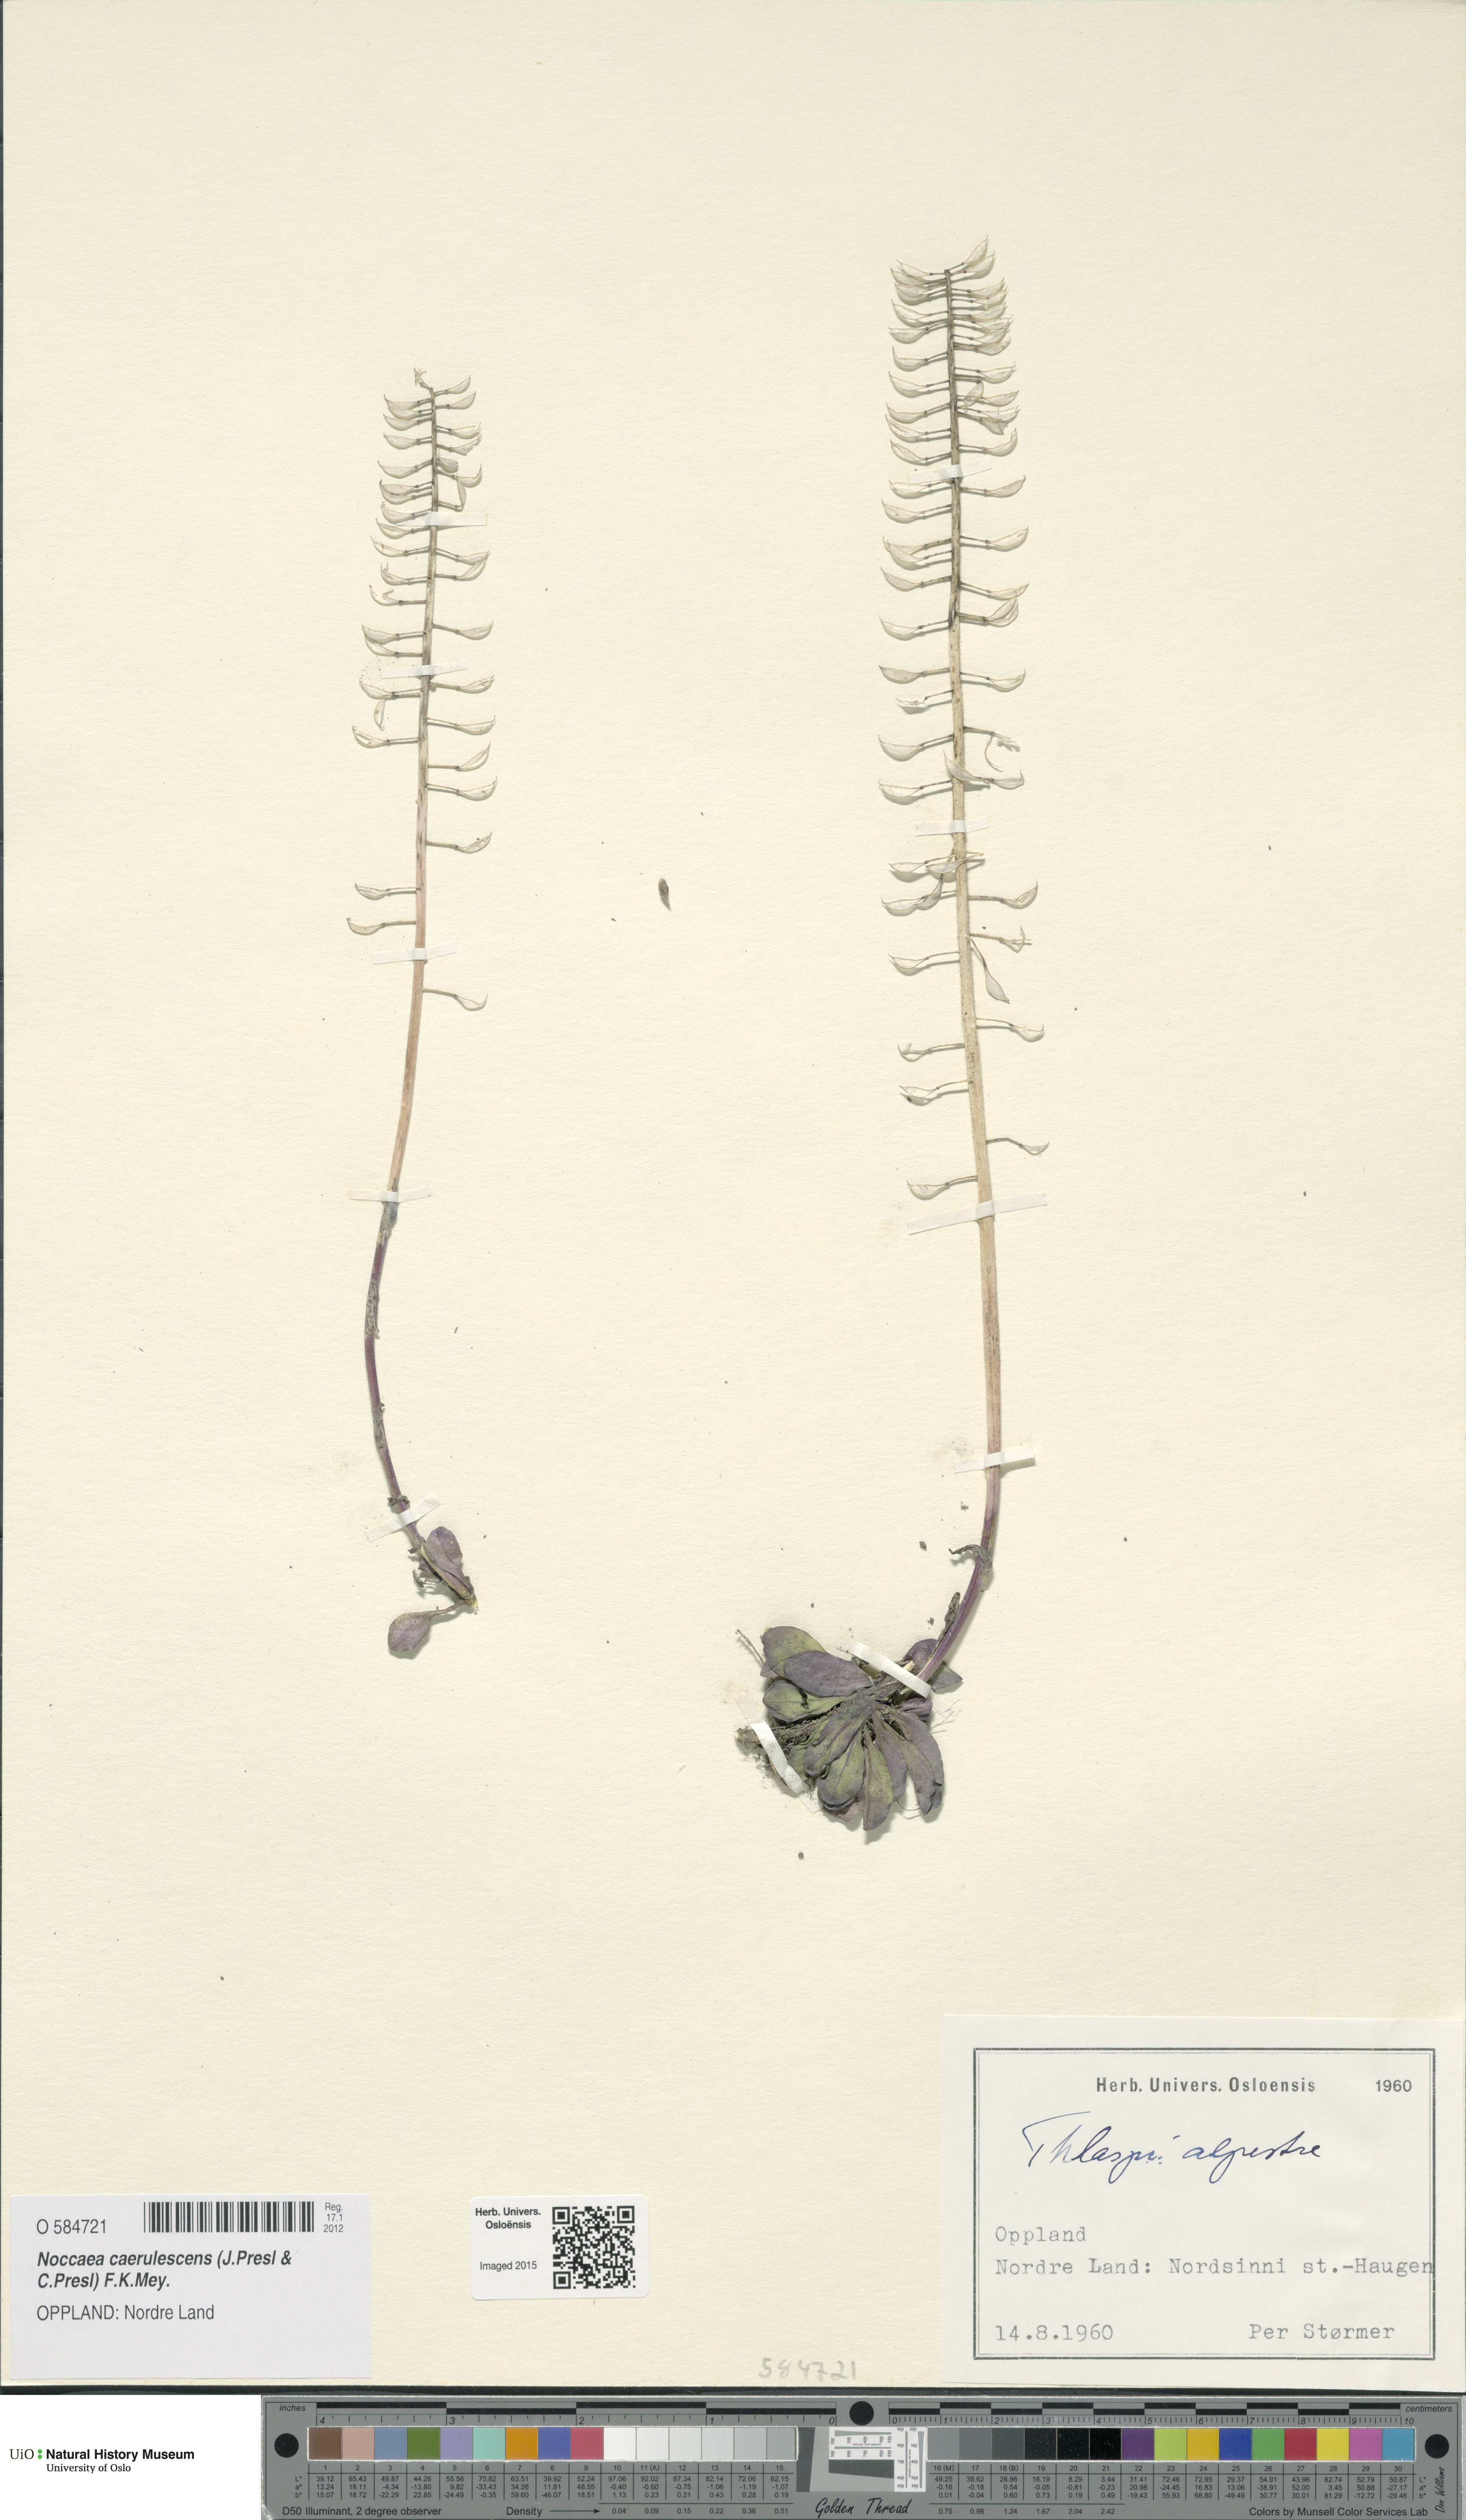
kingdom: Plantae
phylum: Tracheophyta
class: Magnoliopsida
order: Brassicales
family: Brassicaceae
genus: Noccaea
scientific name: Noccaea caerulescens
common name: Alpine pennycress
